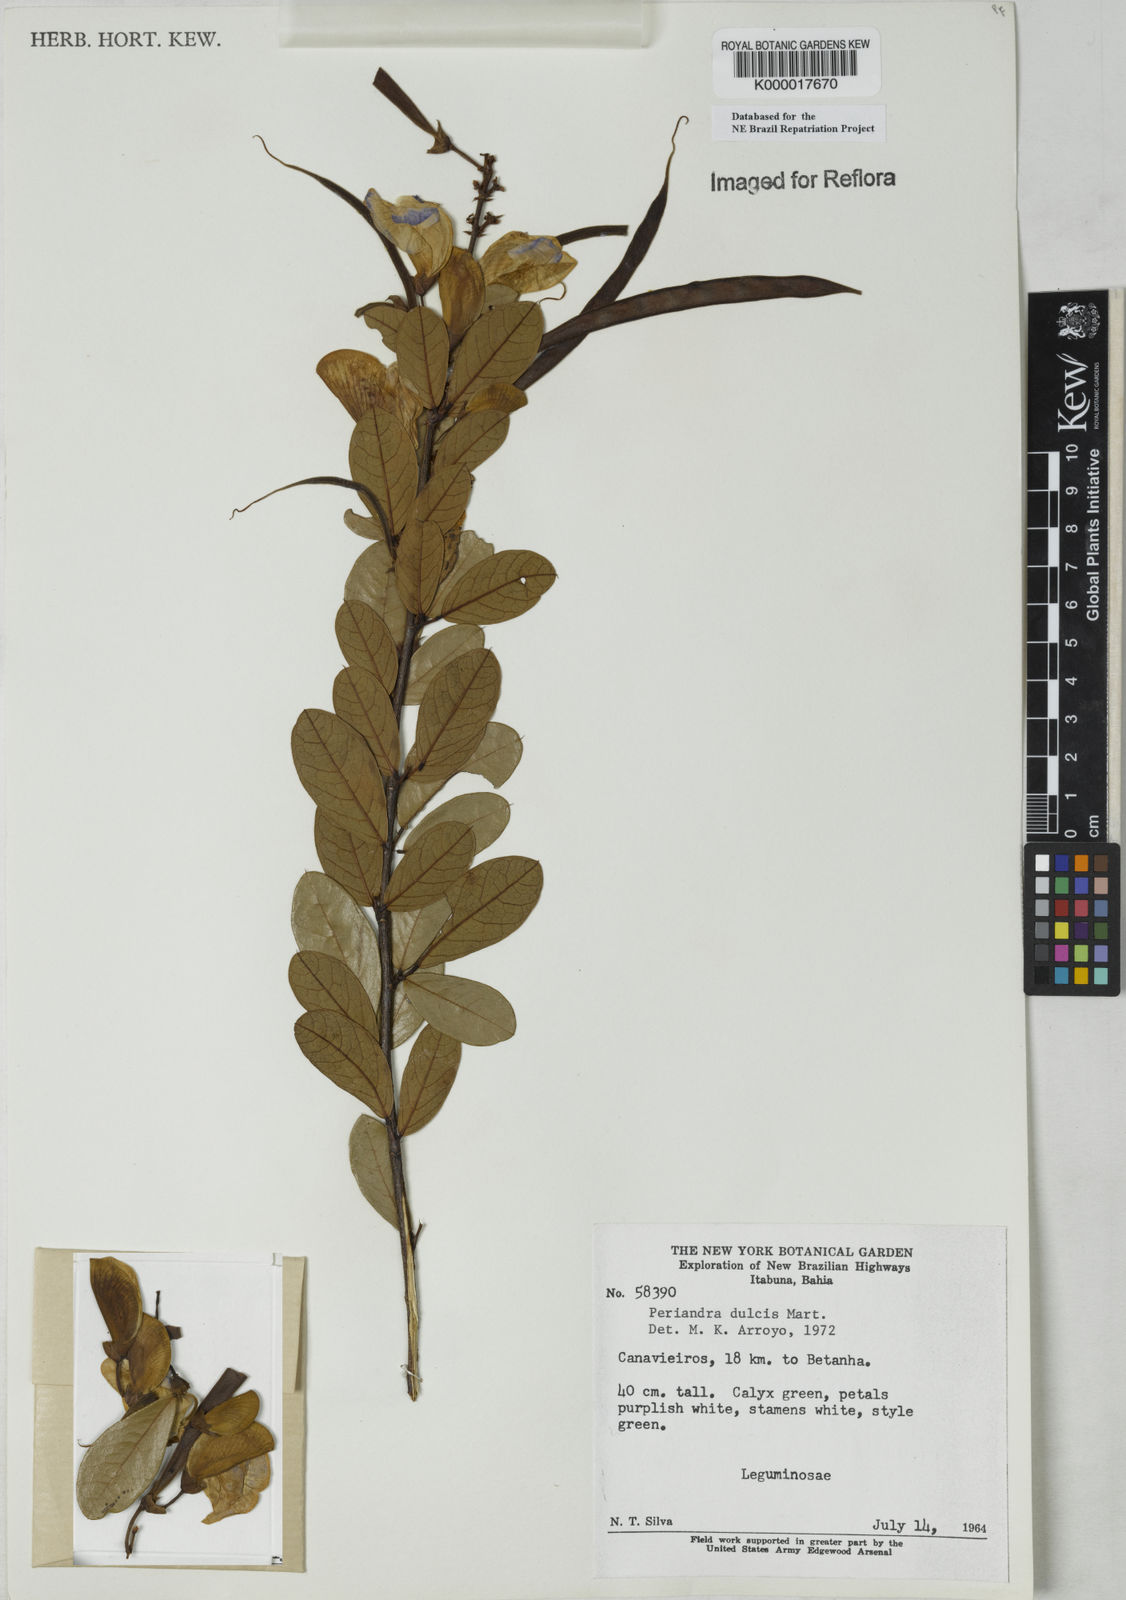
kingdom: Plantae
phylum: Tracheophyta
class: Magnoliopsida
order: Fabales
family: Fabaceae
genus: Periandra
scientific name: Periandra mediterranea
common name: Brazilian licorice
